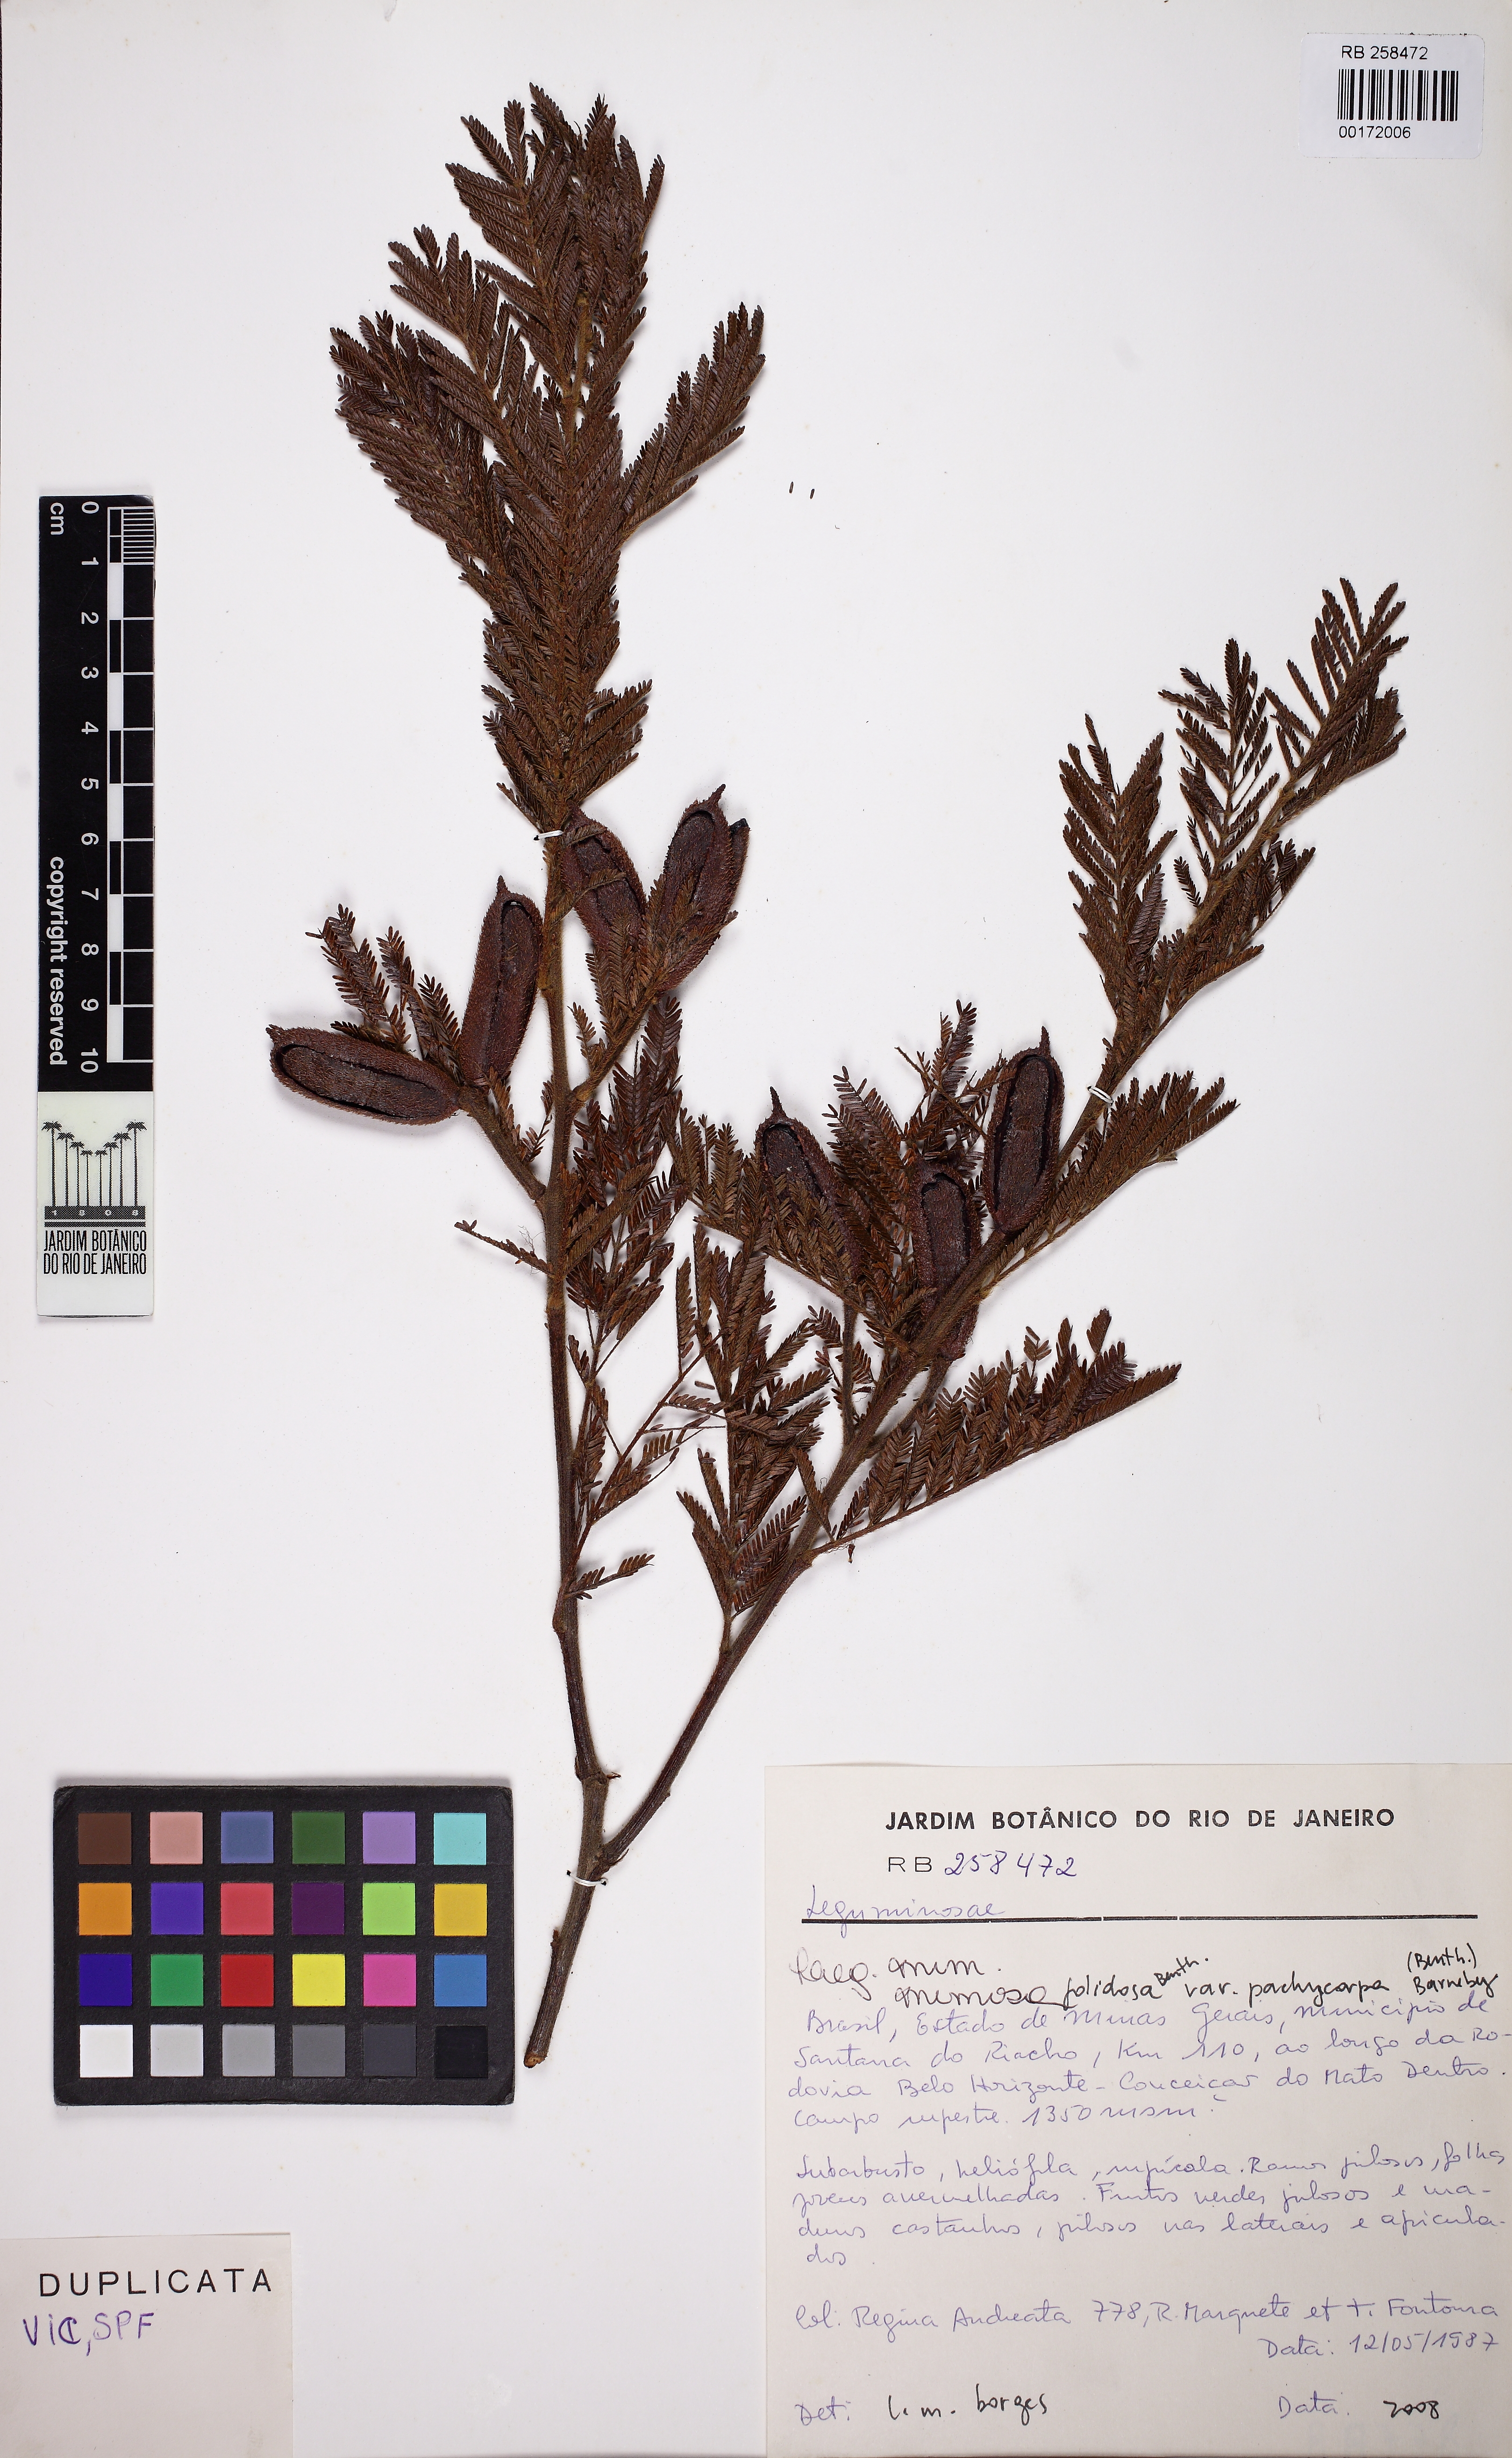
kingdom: Plantae
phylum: Tracheophyta
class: Magnoliopsida
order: Fabales
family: Fabaceae
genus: Mimosa
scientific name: Mimosa foliolosa
